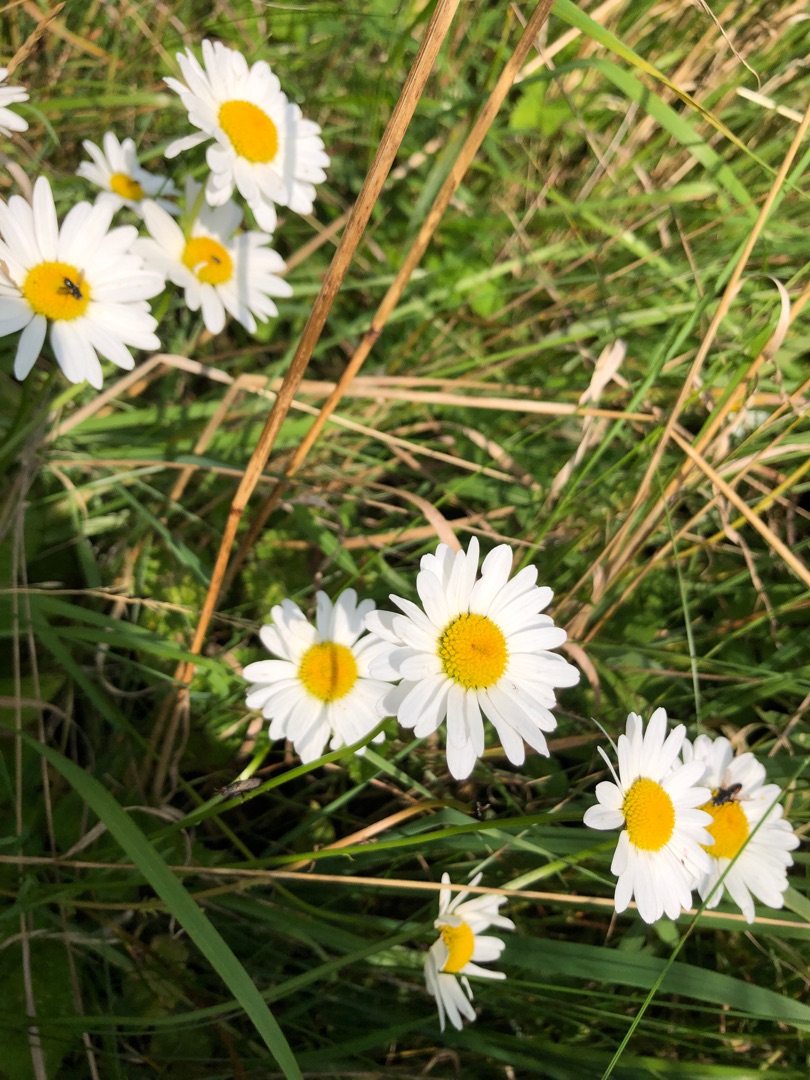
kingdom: Plantae
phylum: Tracheophyta
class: Magnoliopsida
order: Asterales
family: Asteraceae
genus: Leucanthemum
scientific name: Leucanthemum vulgare
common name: Hvid okseøje
